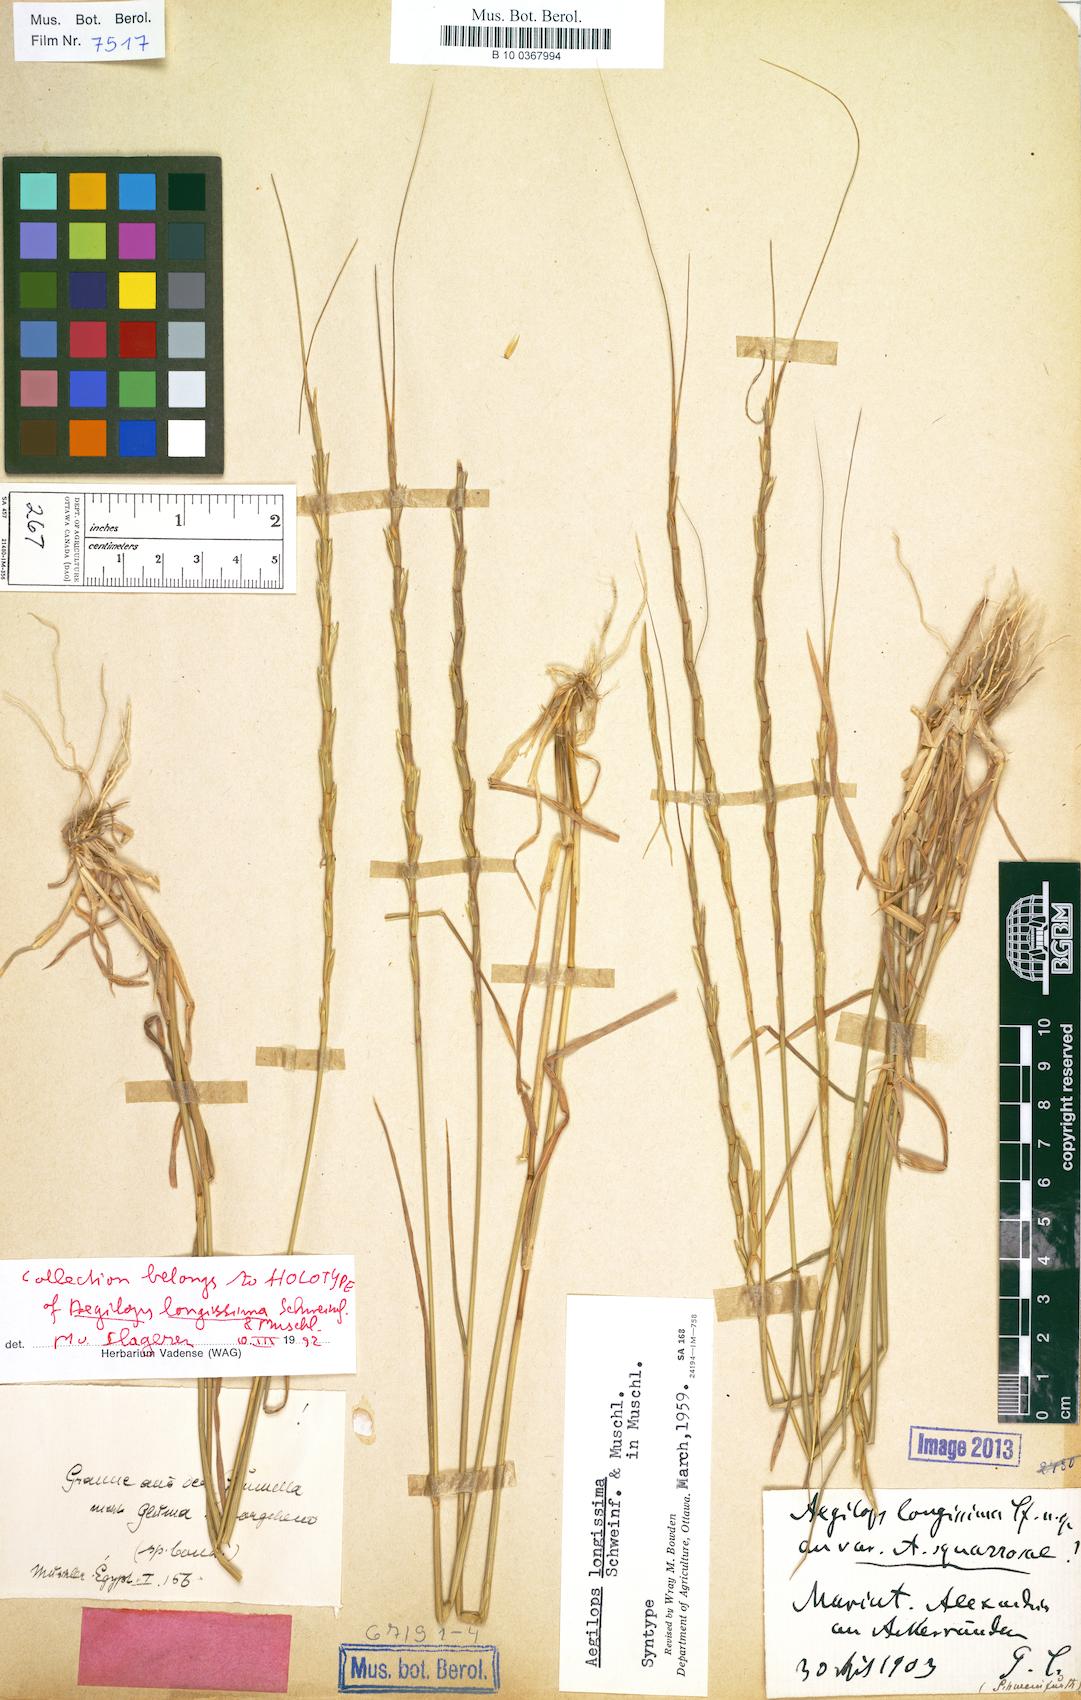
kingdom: Plantae
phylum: Tracheophyta
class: Liliopsida
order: Poales
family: Poaceae
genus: Aegilops
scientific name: Aegilops longissima
